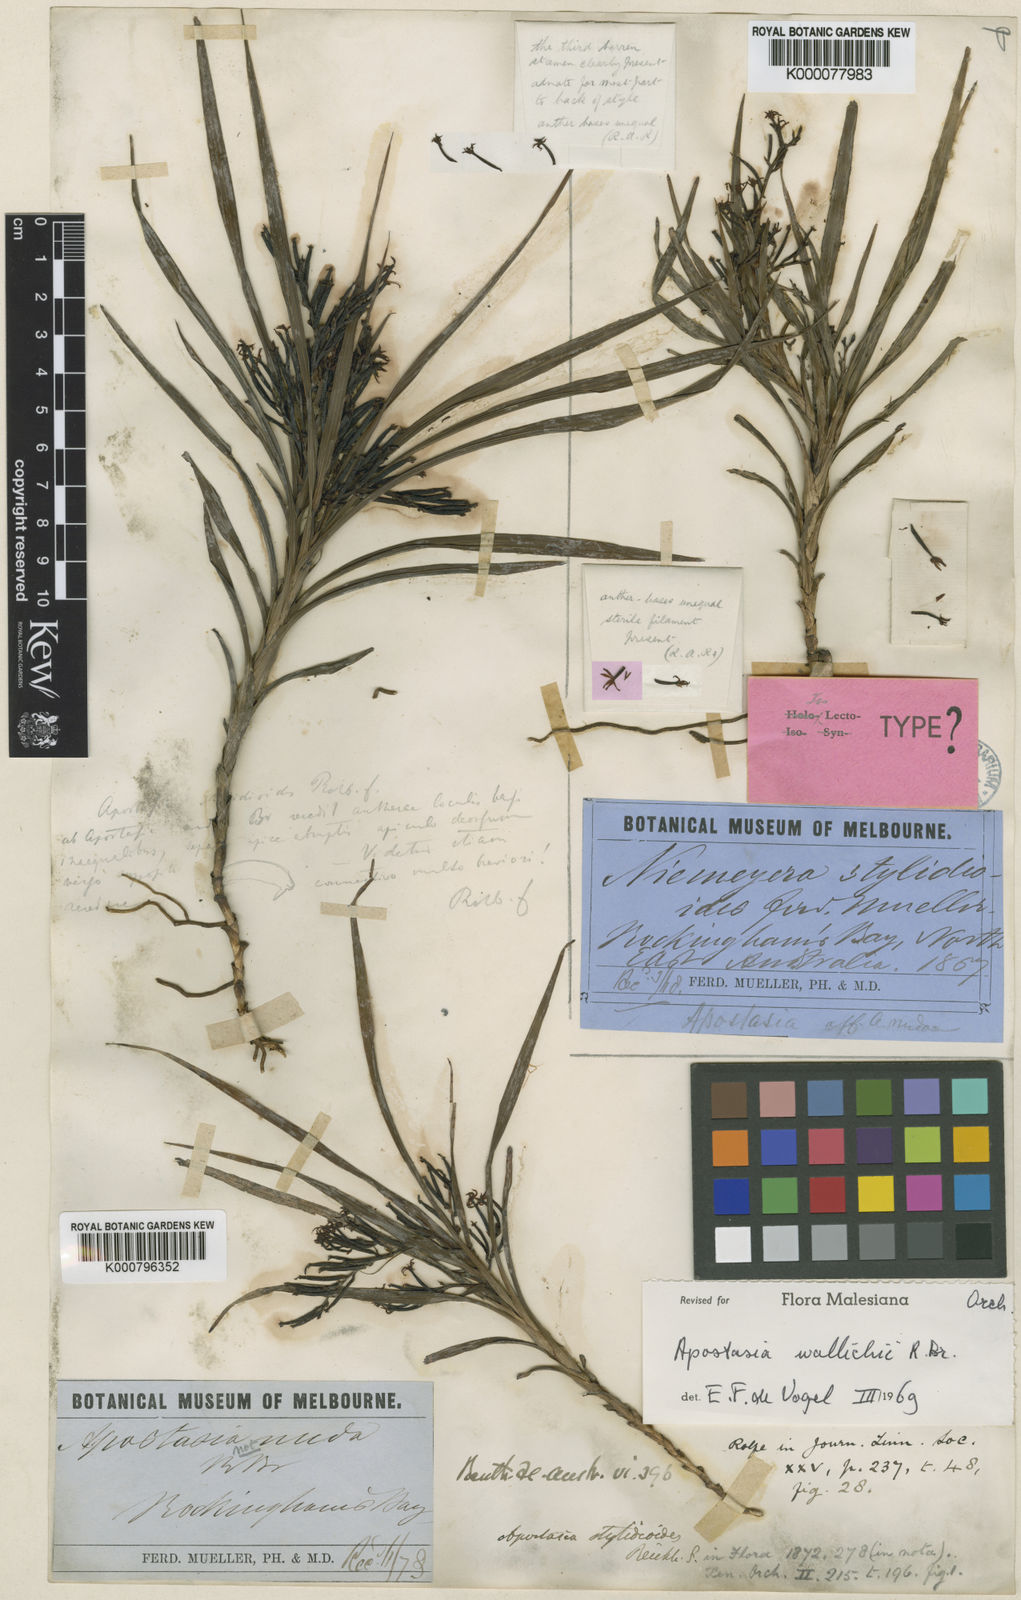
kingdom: Plantae
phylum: Tracheophyta
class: Liliopsida
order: Asparagales
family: Orchidaceae
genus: Apostasia
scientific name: Apostasia wallichii
